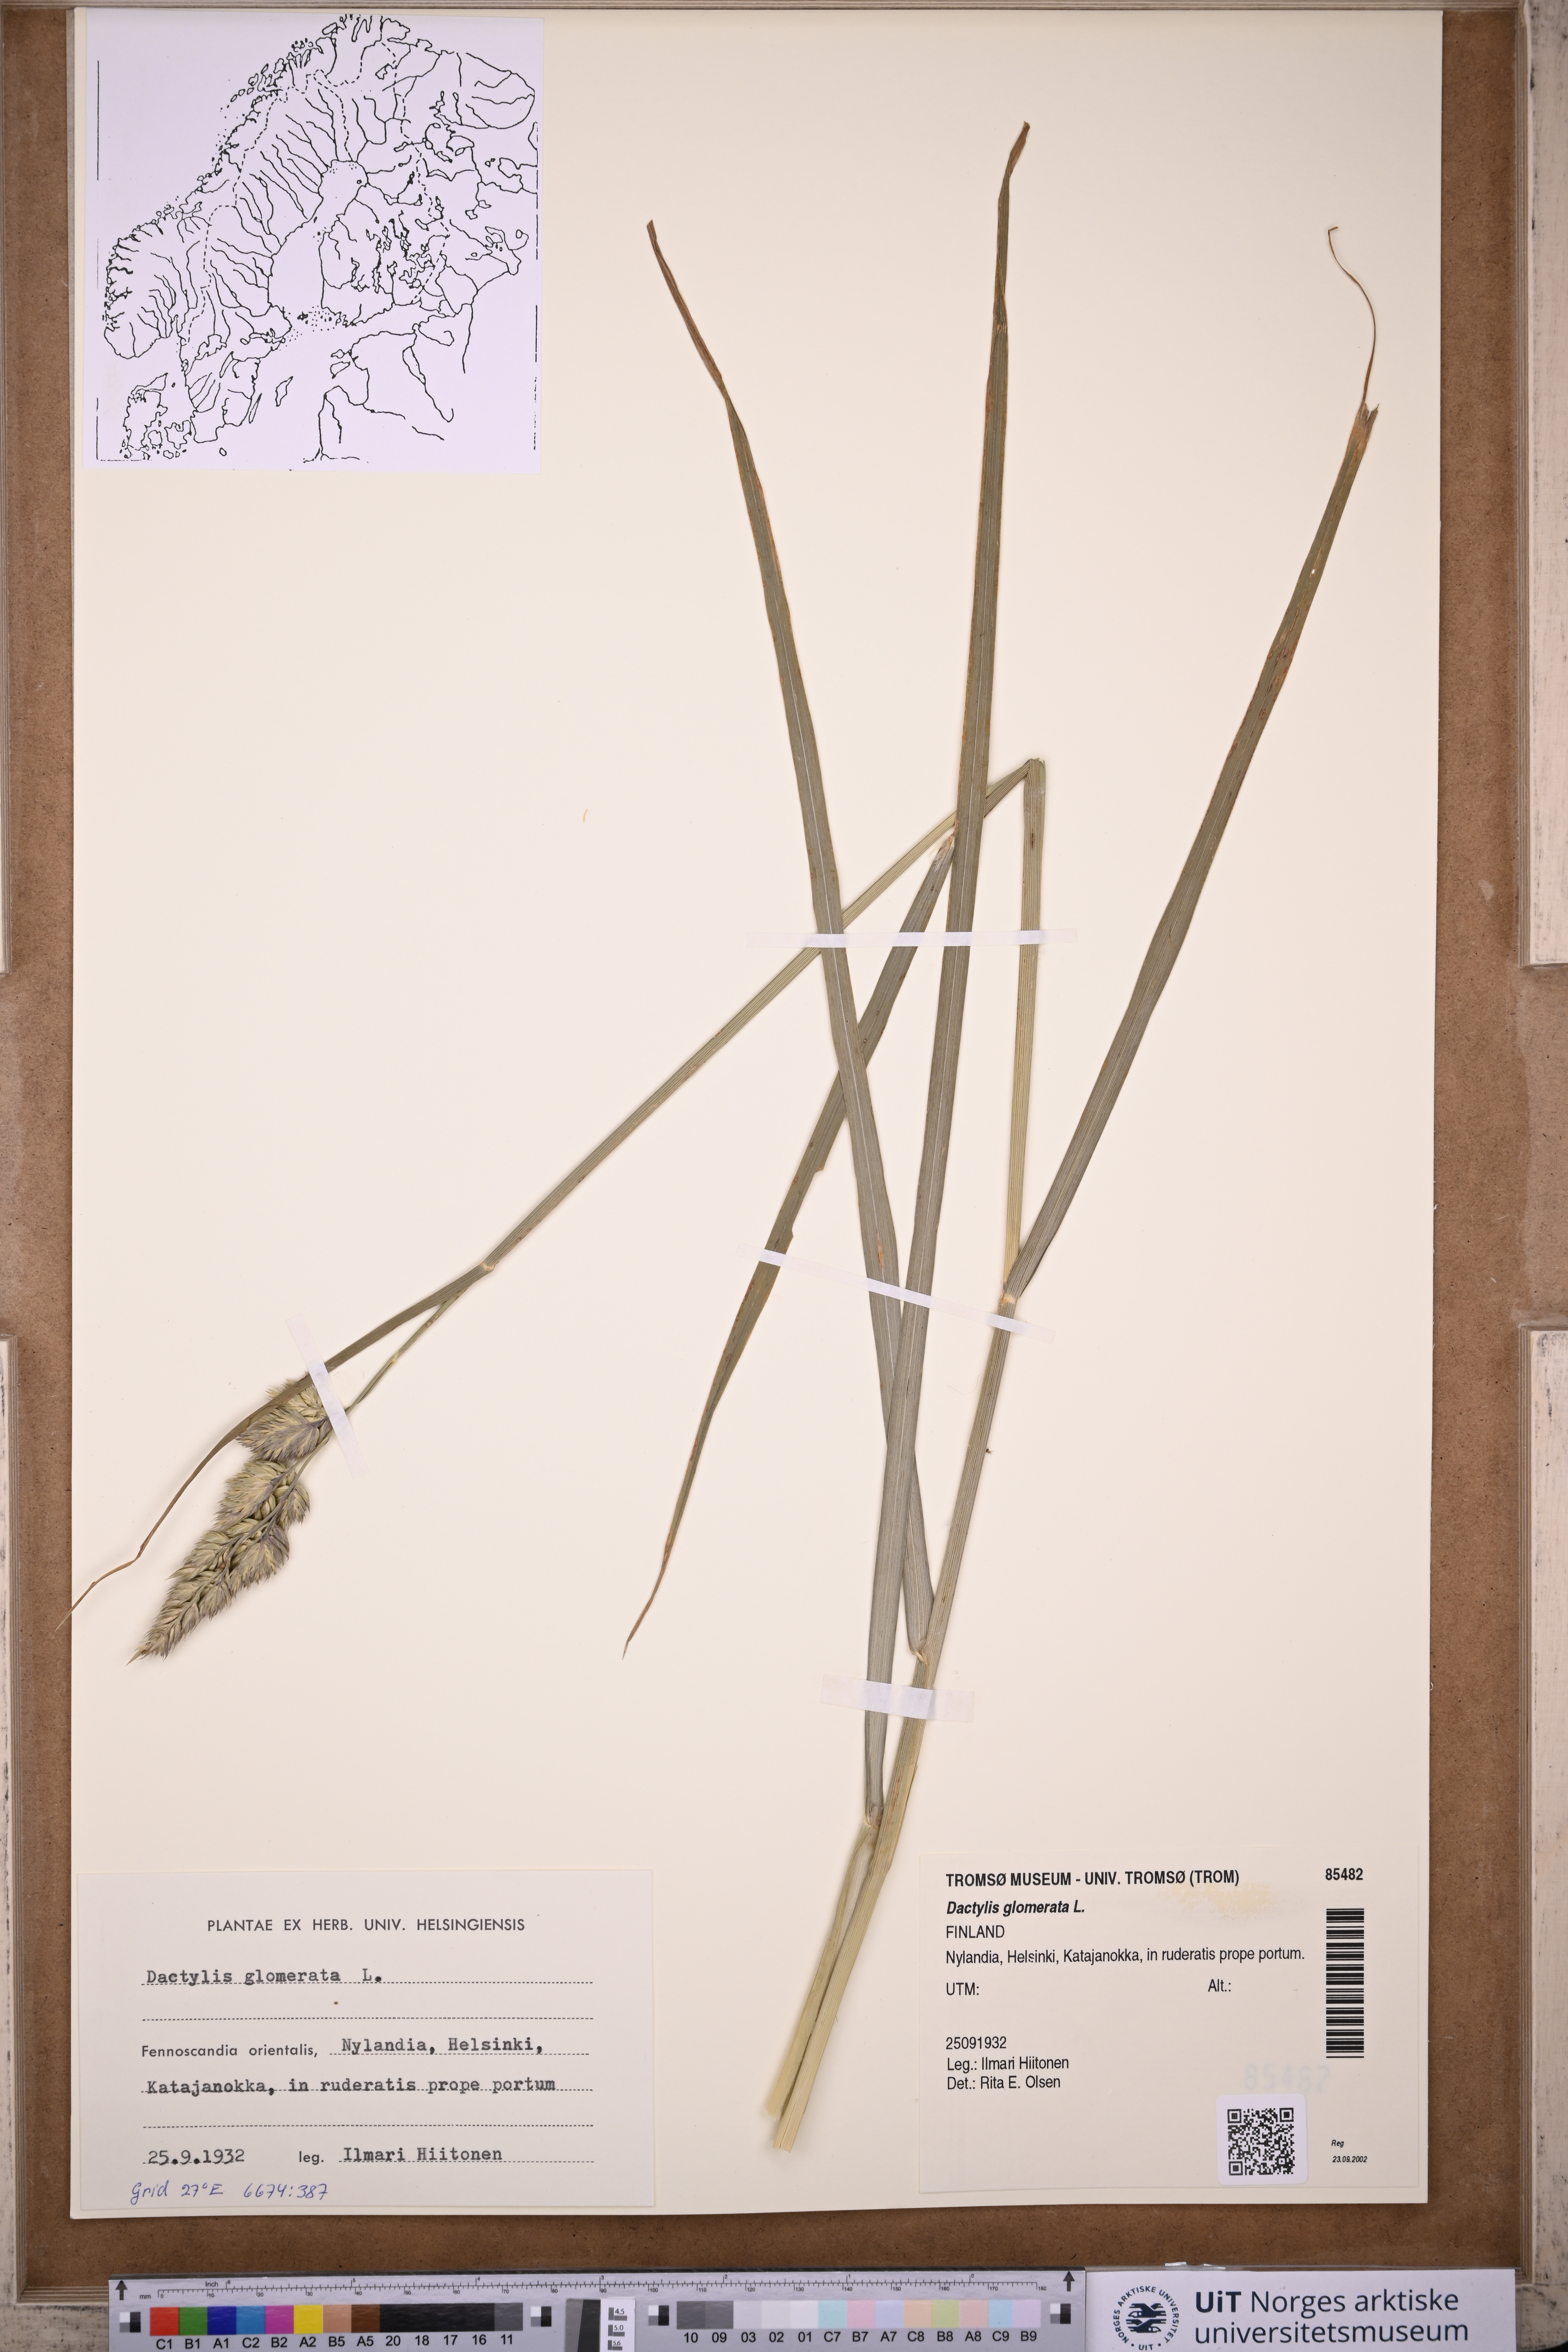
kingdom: Plantae
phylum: Tracheophyta
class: Liliopsida
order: Poales
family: Poaceae
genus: Dactylis
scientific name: Dactylis glomerata
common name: Orchardgrass
